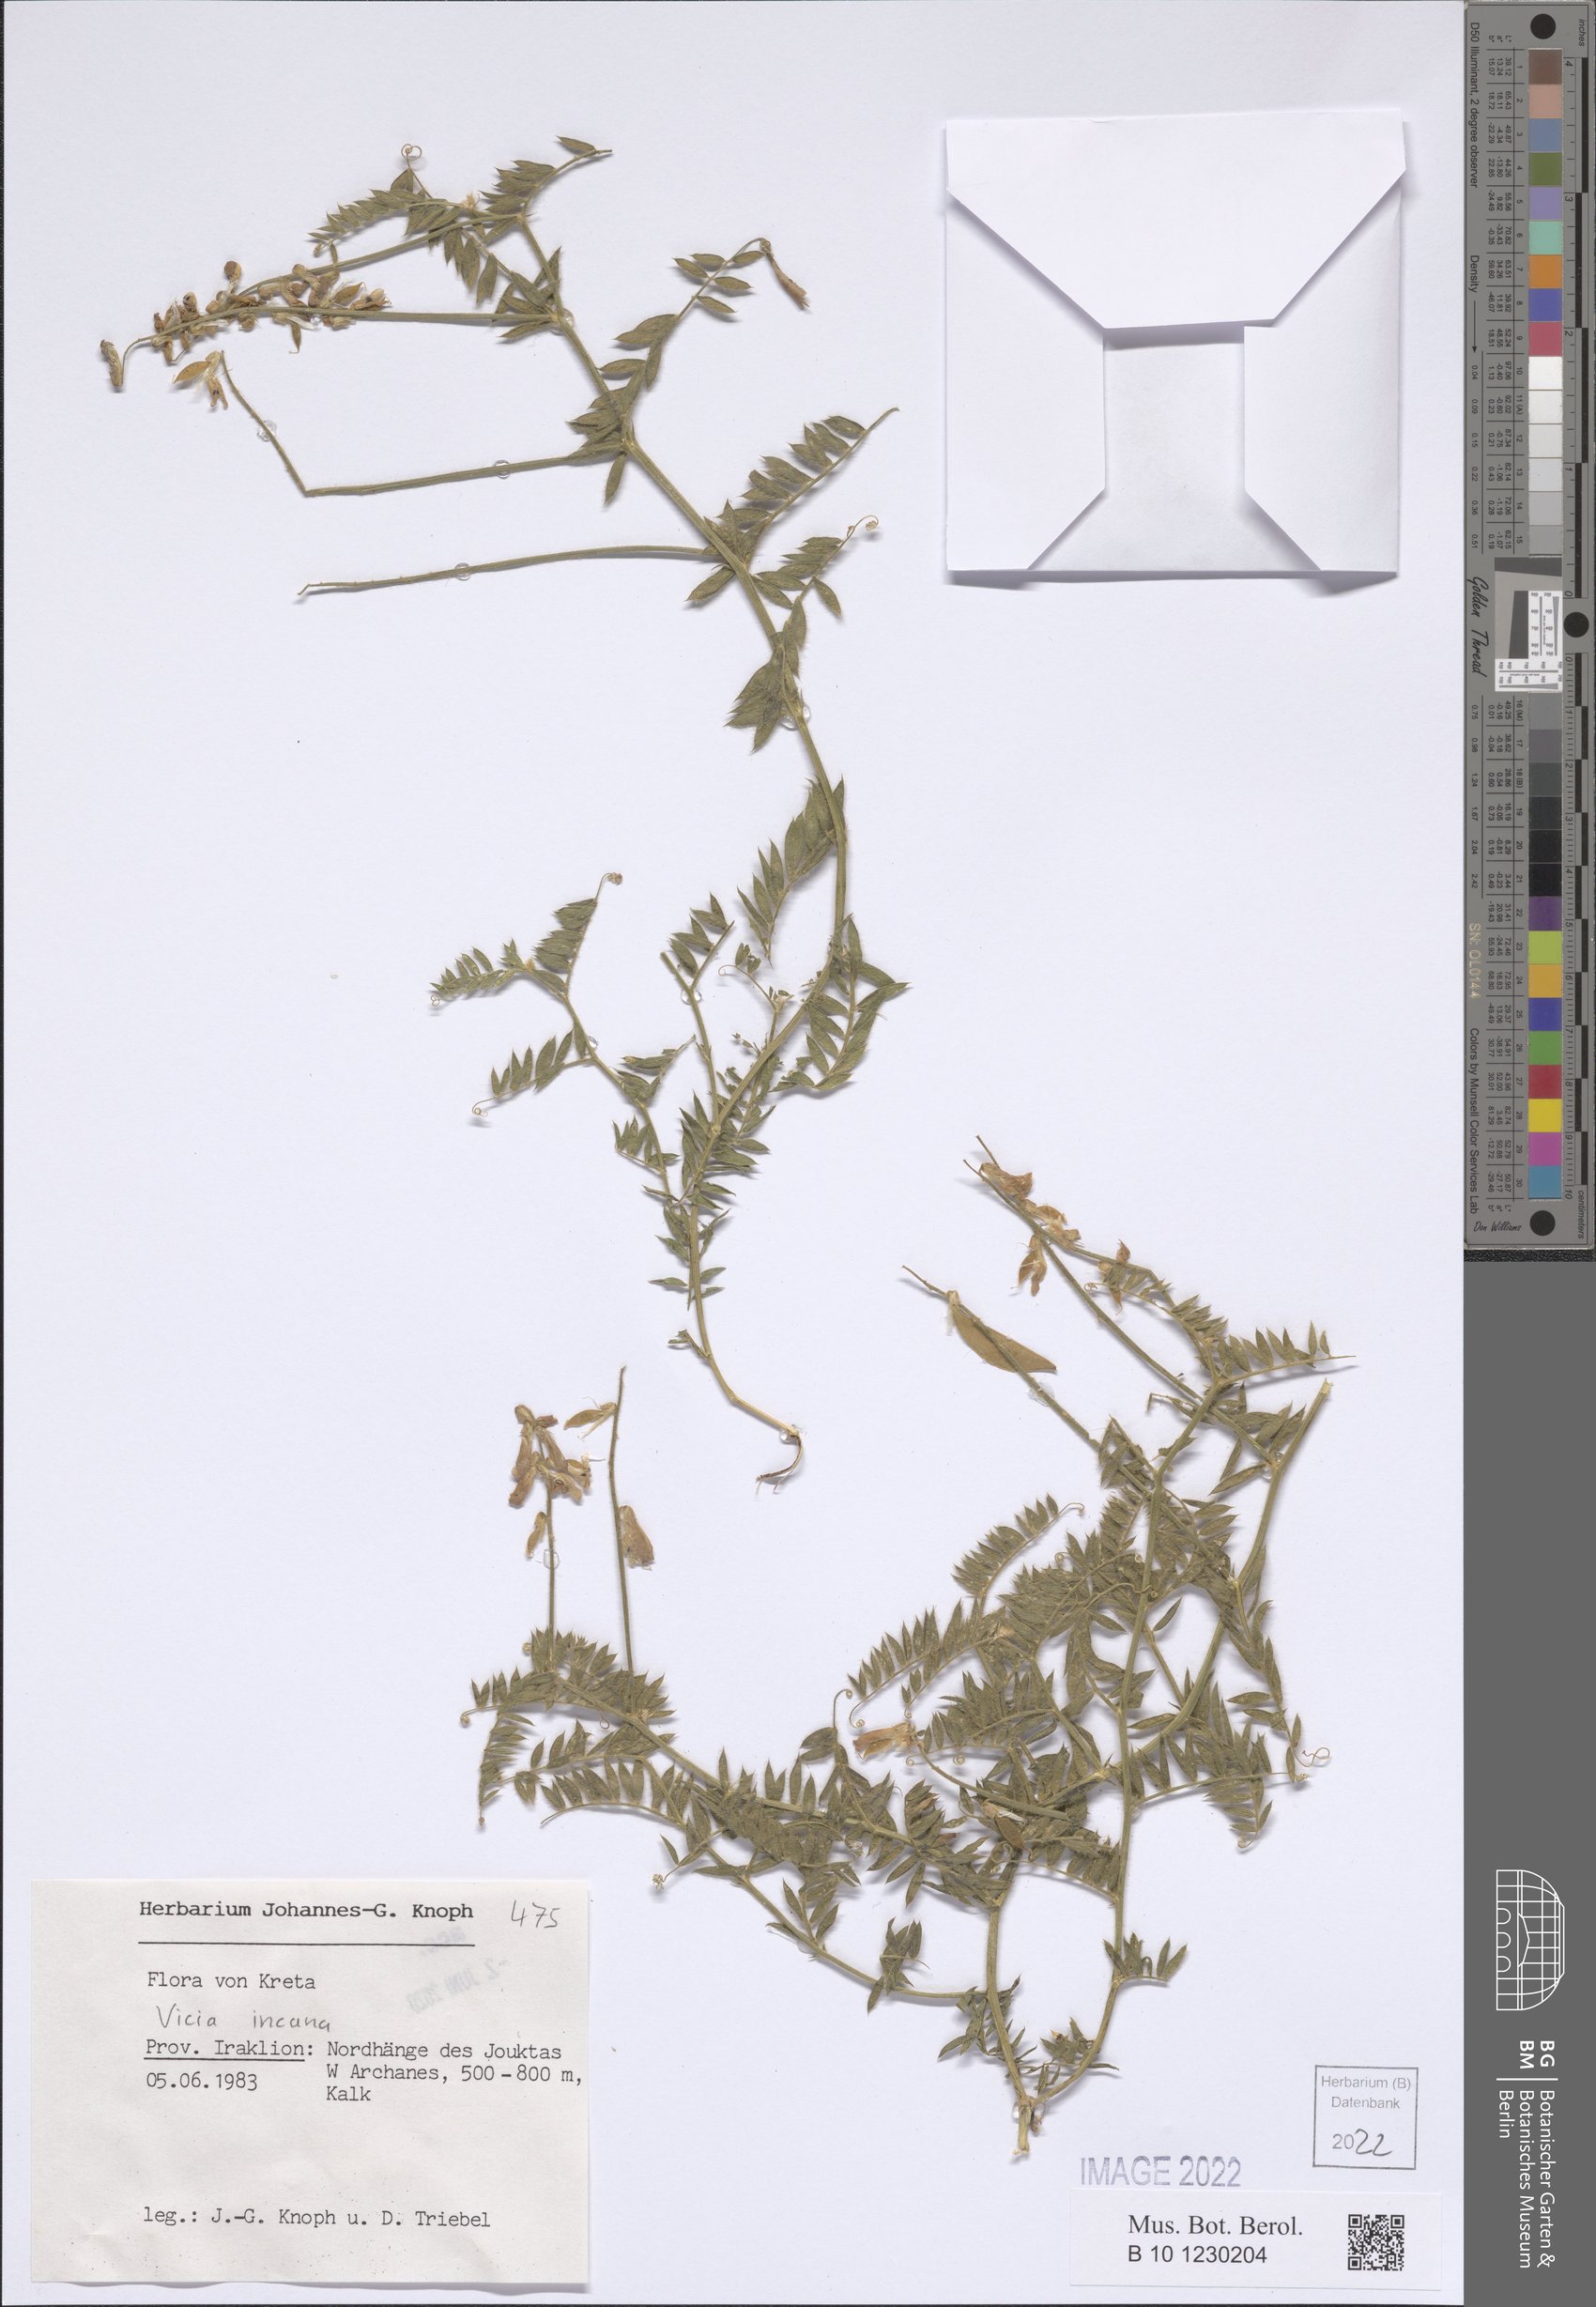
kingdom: Plantae
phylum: Tracheophyta
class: Magnoliopsida
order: Fabales
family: Fabaceae
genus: Vicia
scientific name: Vicia incana
